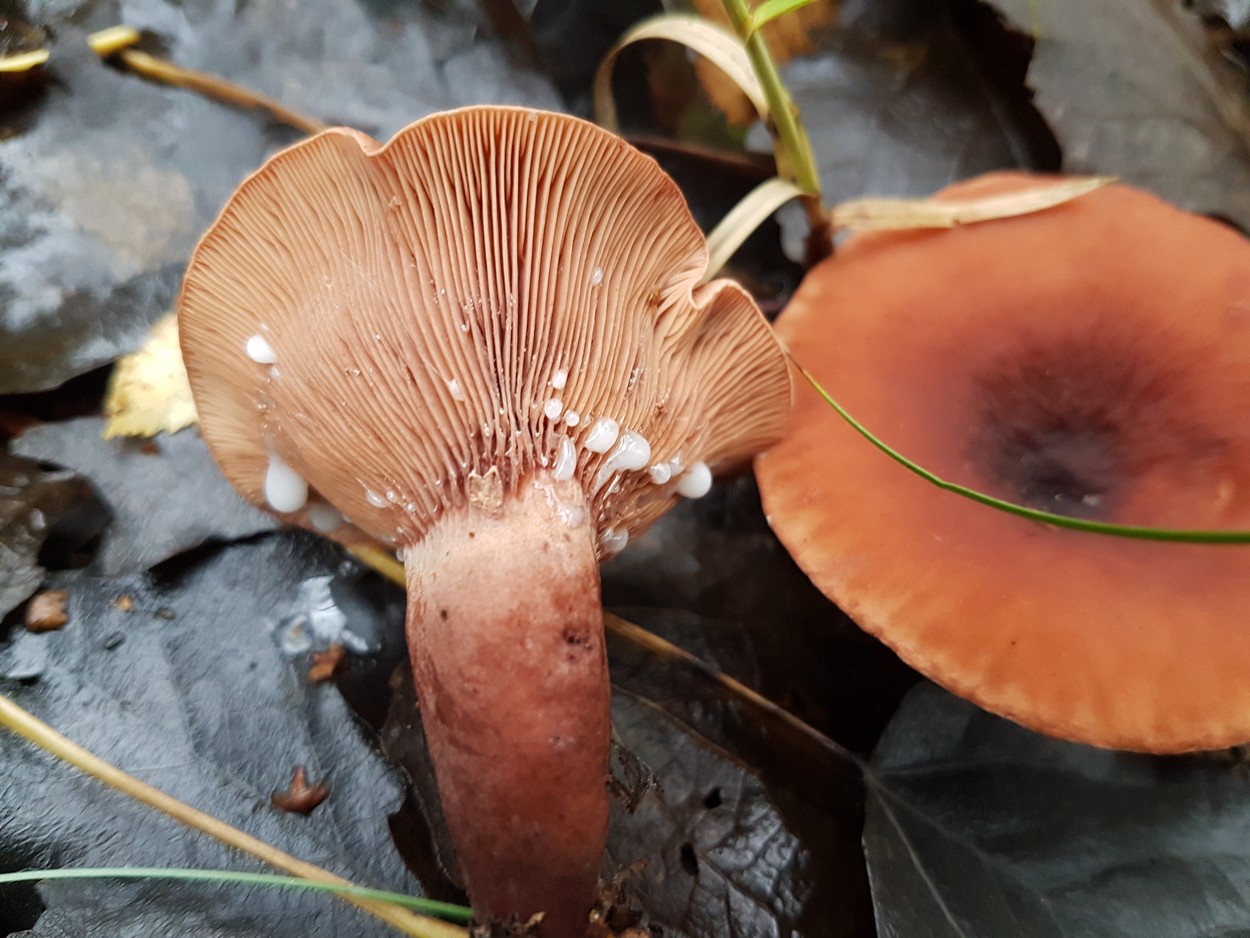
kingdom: Fungi
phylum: Basidiomycota
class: Agaricomycetes
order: Russulales
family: Russulaceae
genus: Lactarius
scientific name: Lactarius fulvissimus
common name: ræve-mælkehat
